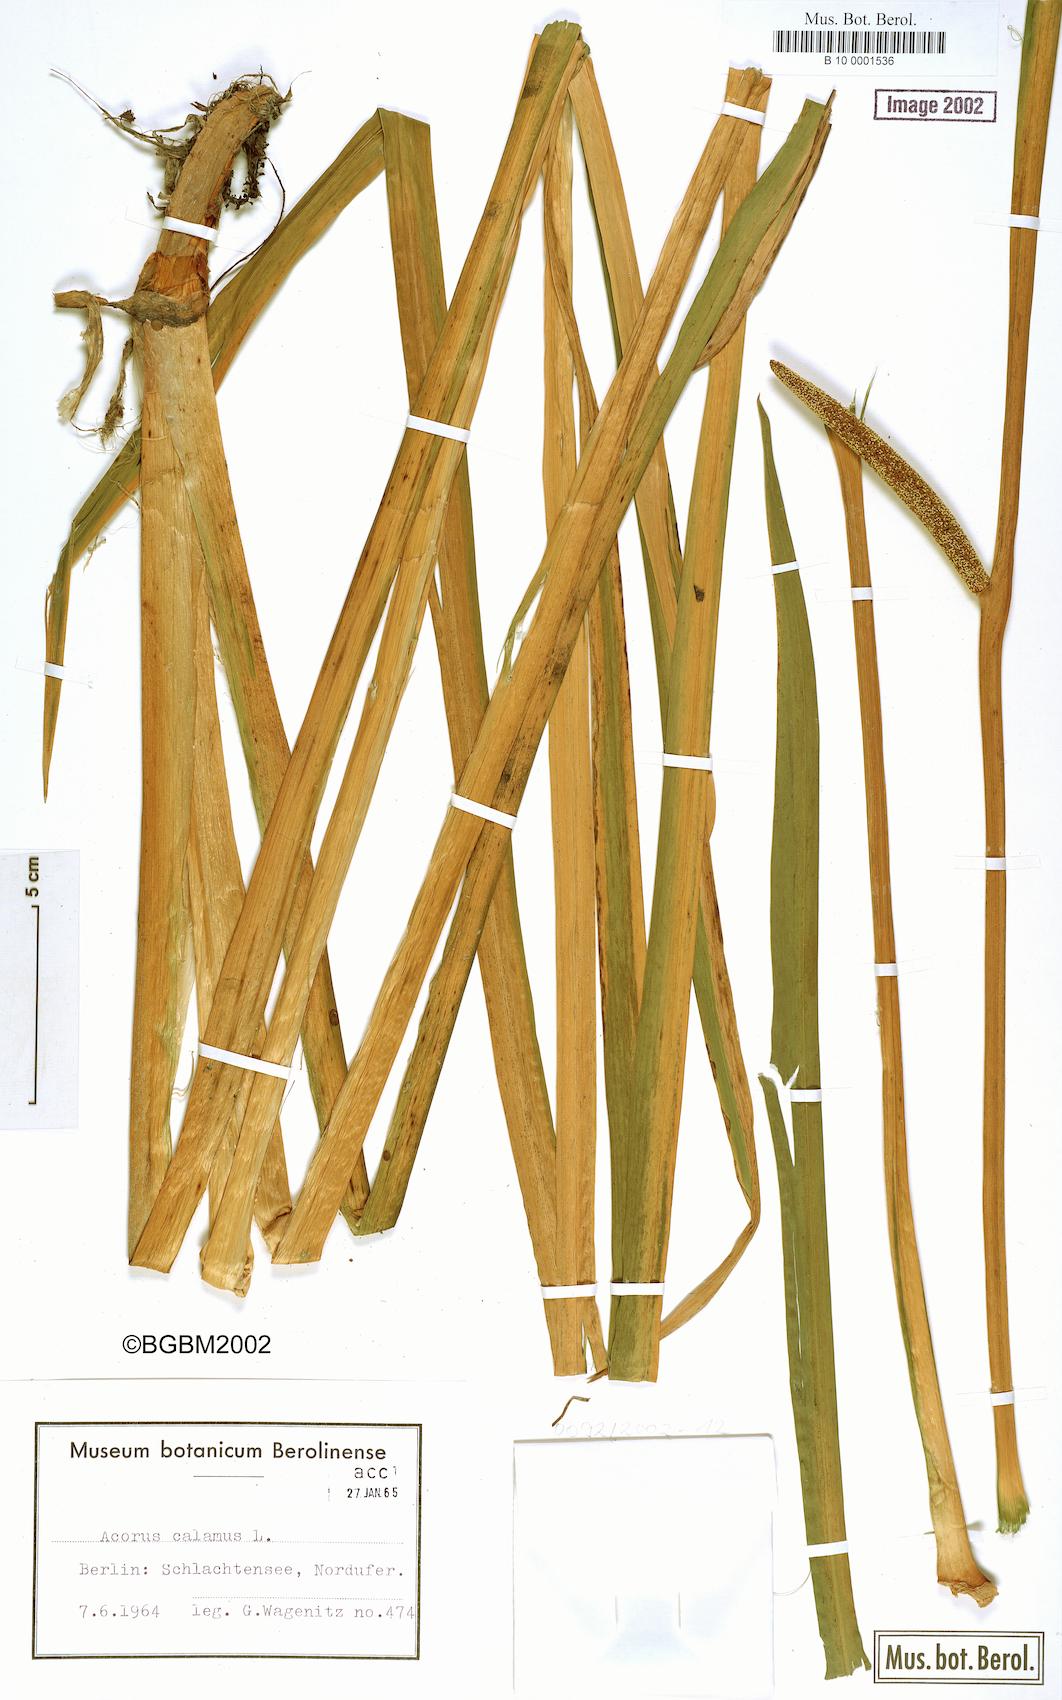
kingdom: Plantae
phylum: Tracheophyta
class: Liliopsida
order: Acorales
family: Acoraceae
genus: Acorus
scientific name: Acorus calamus
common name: Sweet-flag
